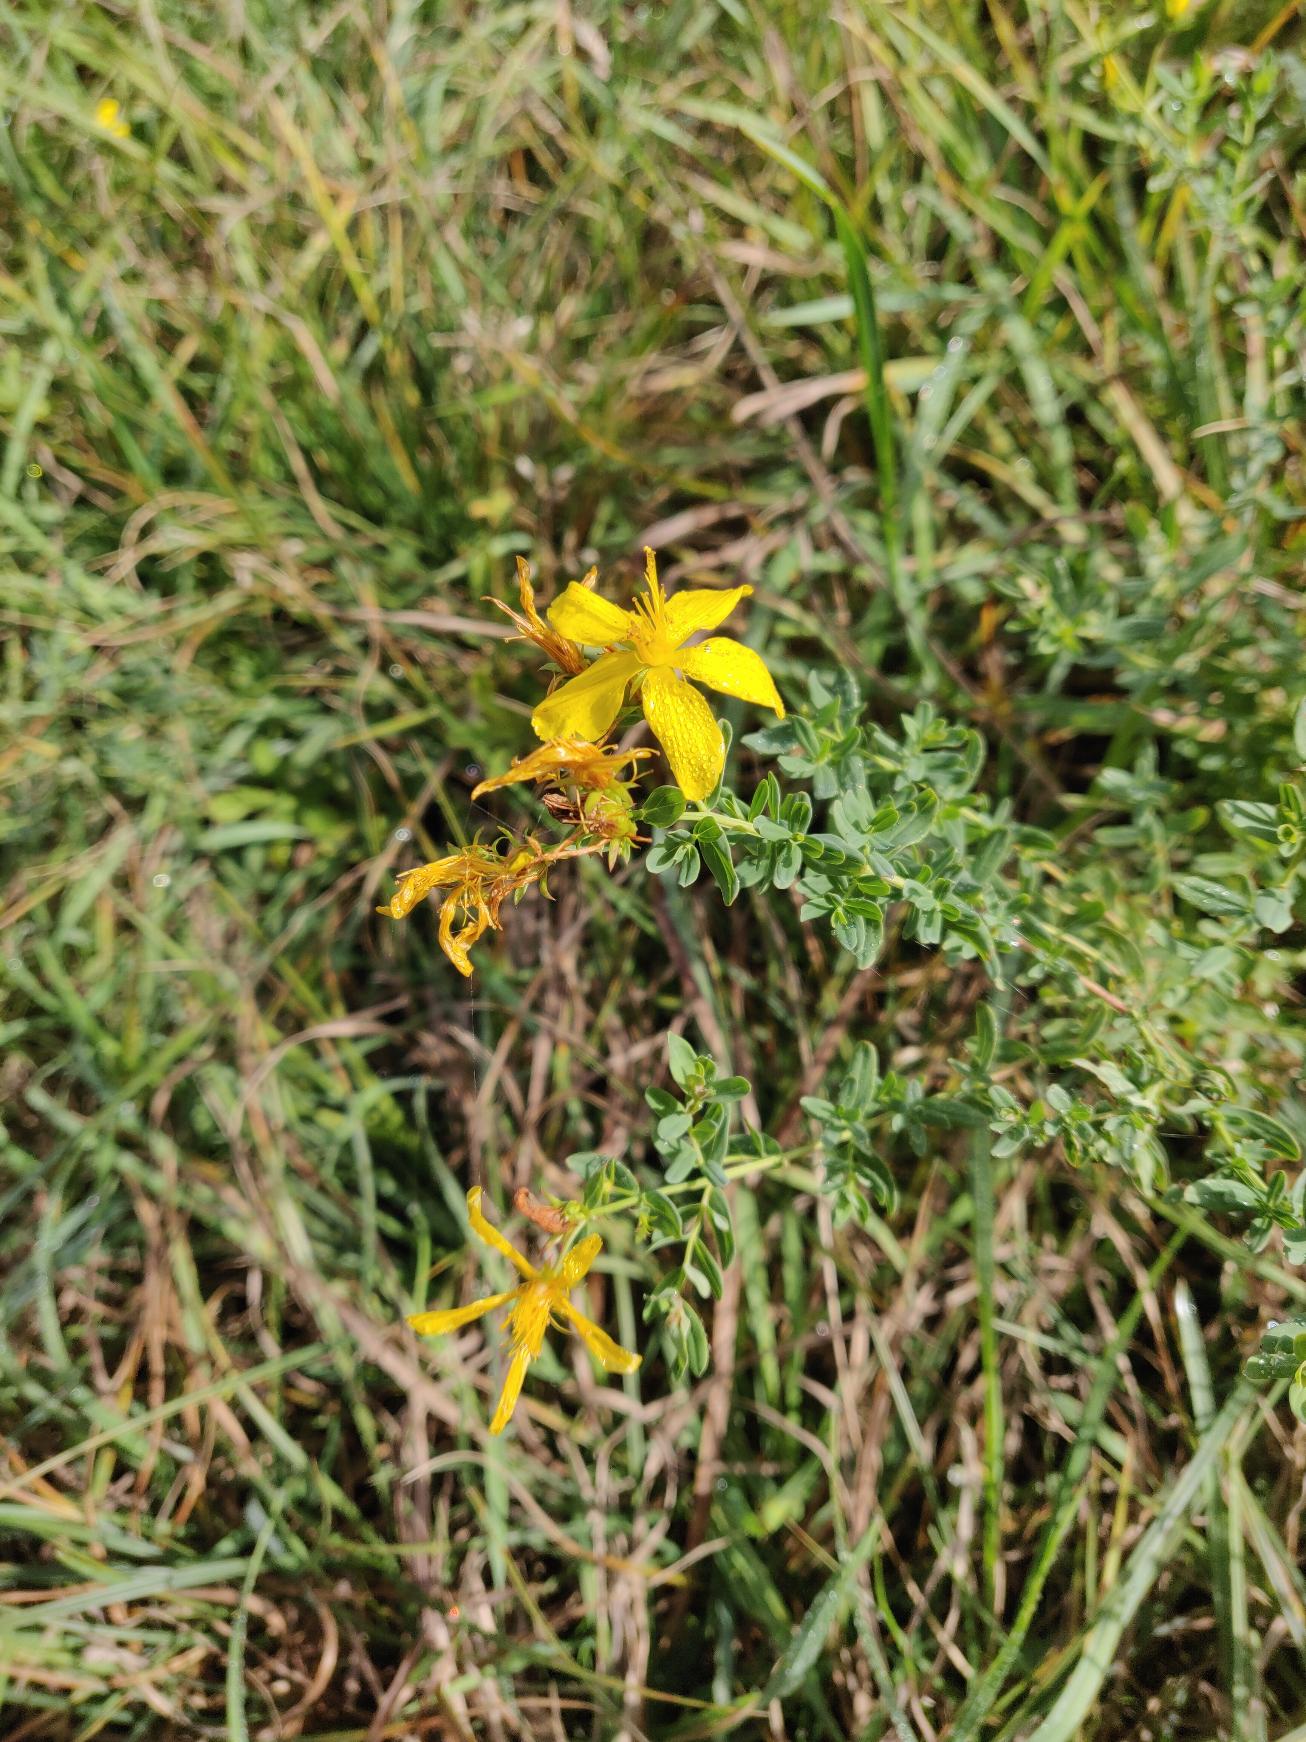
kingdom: Plantae
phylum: Tracheophyta
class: Magnoliopsida
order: Malpighiales
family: Hypericaceae
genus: Hypericum
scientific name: Hypericum perforatum
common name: Prikbladet perikon
